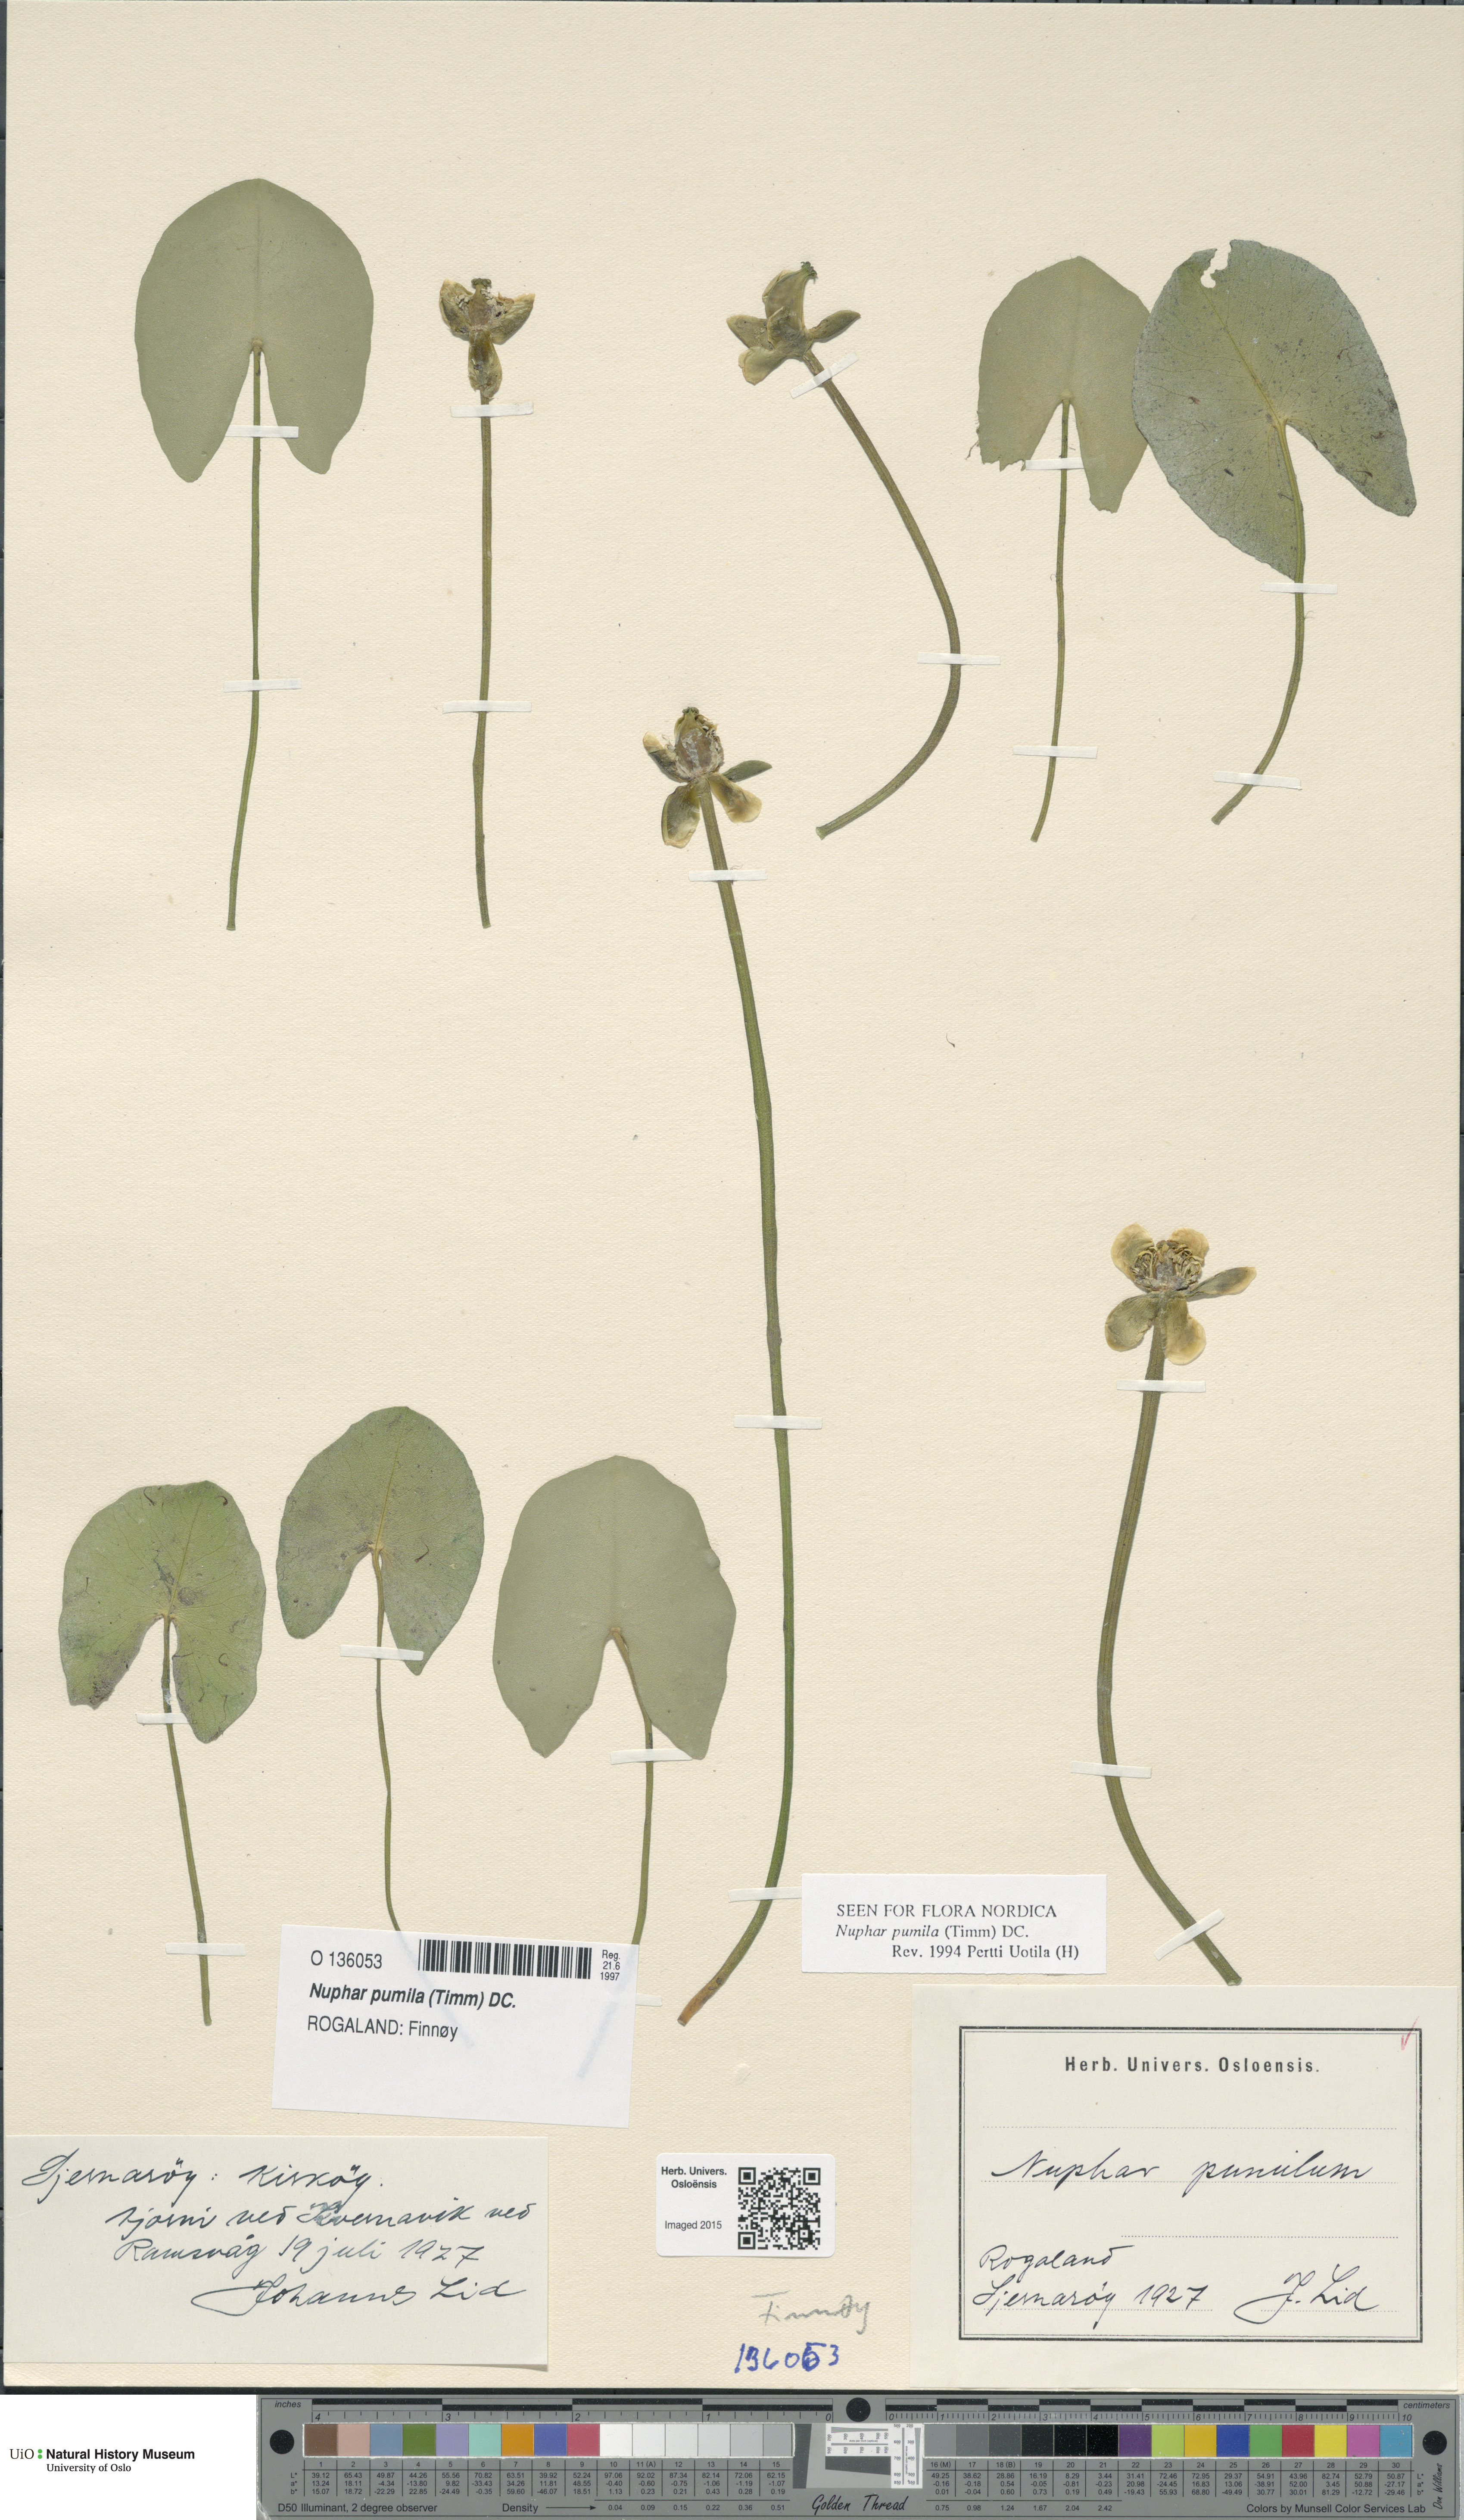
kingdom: Plantae
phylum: Tracheophyta
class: Magnoliopsida
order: Nymphaeales
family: Nymphaeaceae
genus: Nuphar
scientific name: Nuphar pumila
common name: Least water-lily
